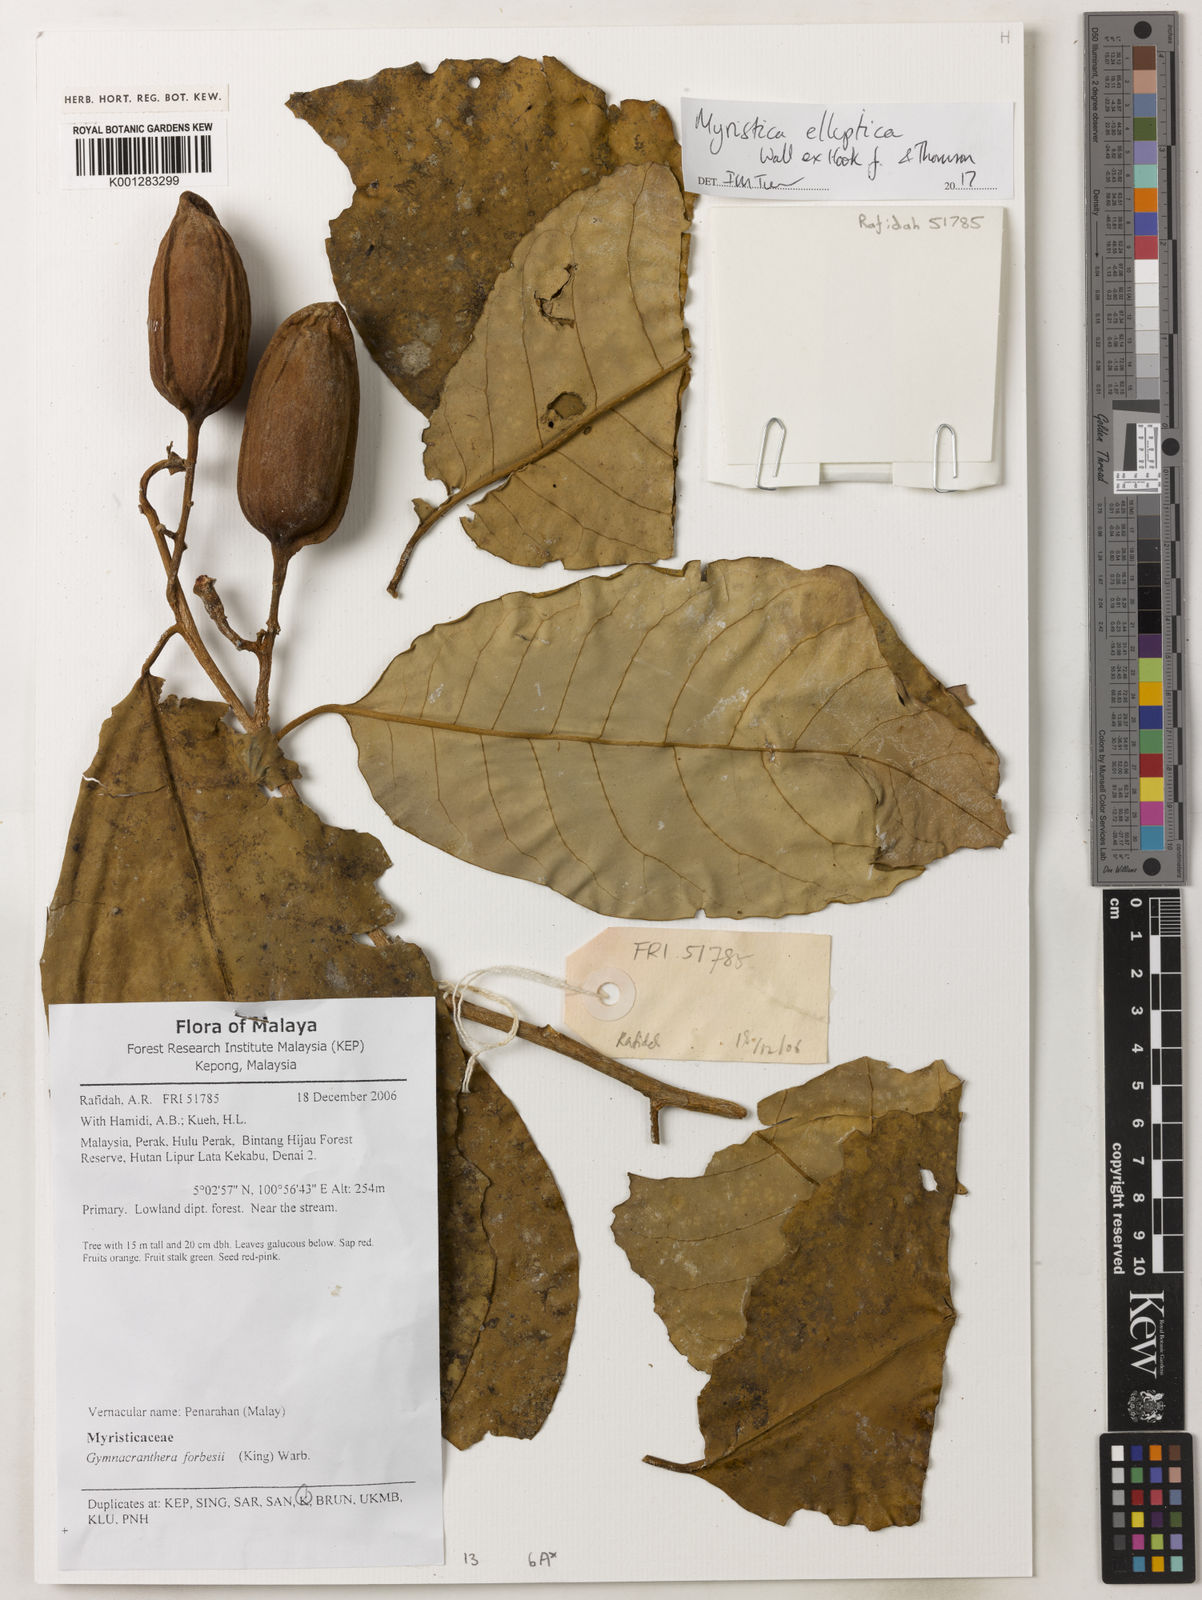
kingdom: Plantae
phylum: Tracheophyta
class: Magnoliopsida
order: Magnoliales
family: Myristicaceae
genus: Myristica
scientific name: Myristica elliptica
